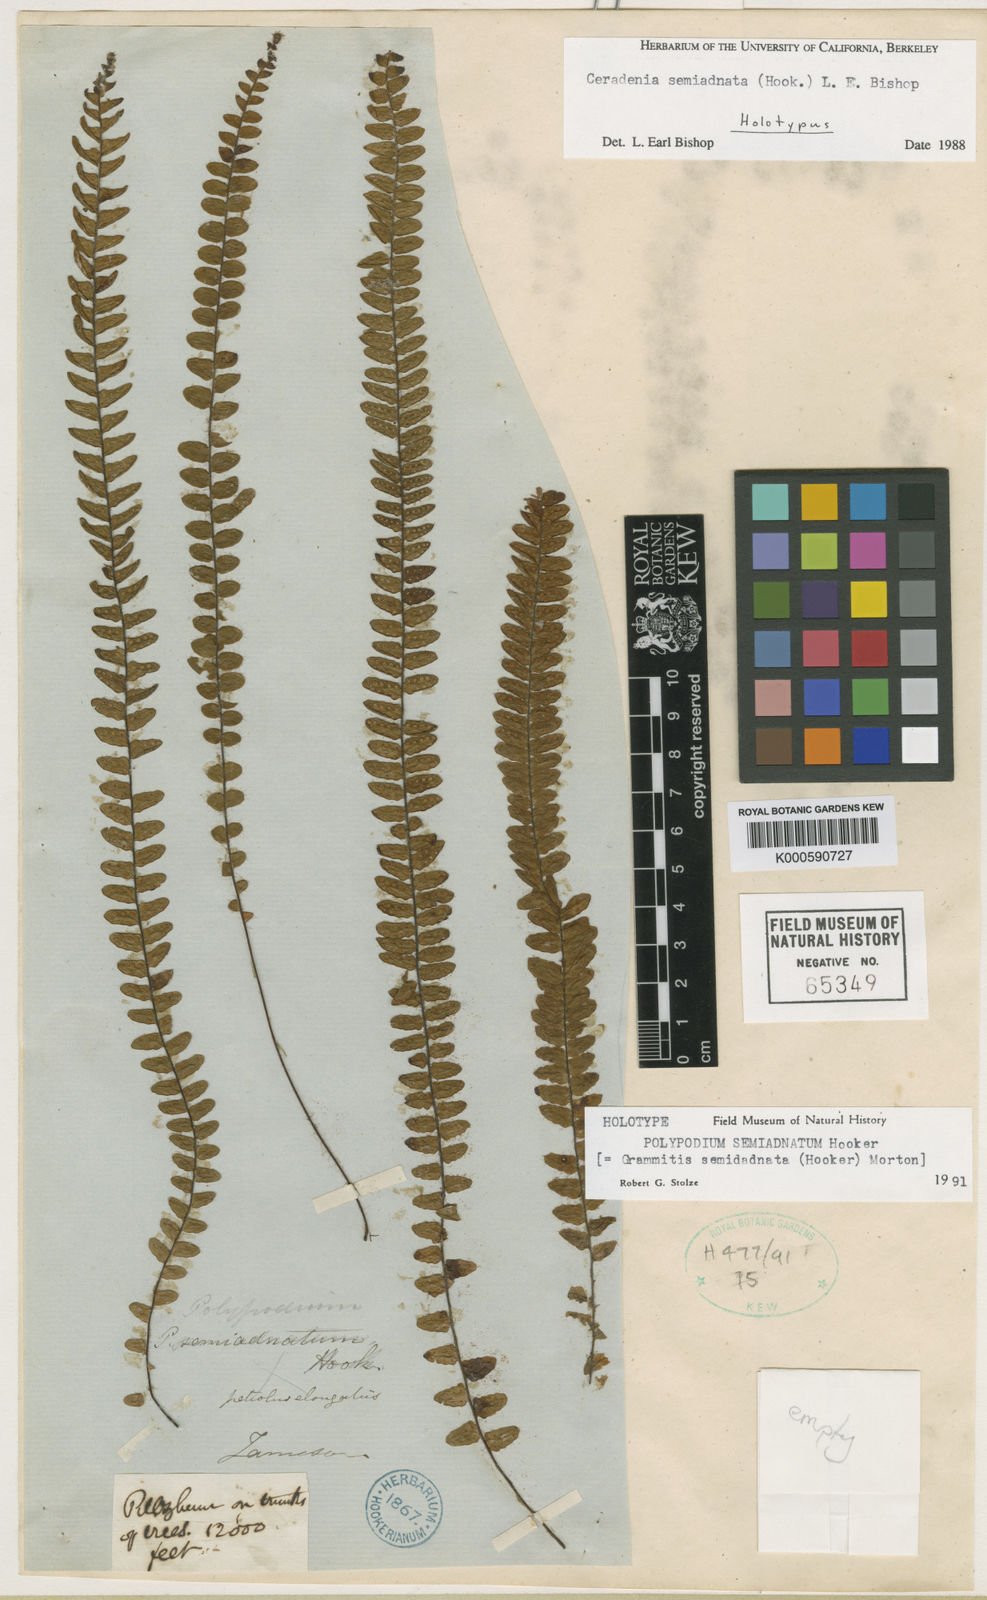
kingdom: Plantae
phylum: Tracheophyta
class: Polypodiopsida
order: Polypodiales
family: Polypodiaceae
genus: Ceradenia
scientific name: Ceradenia semiadnata
